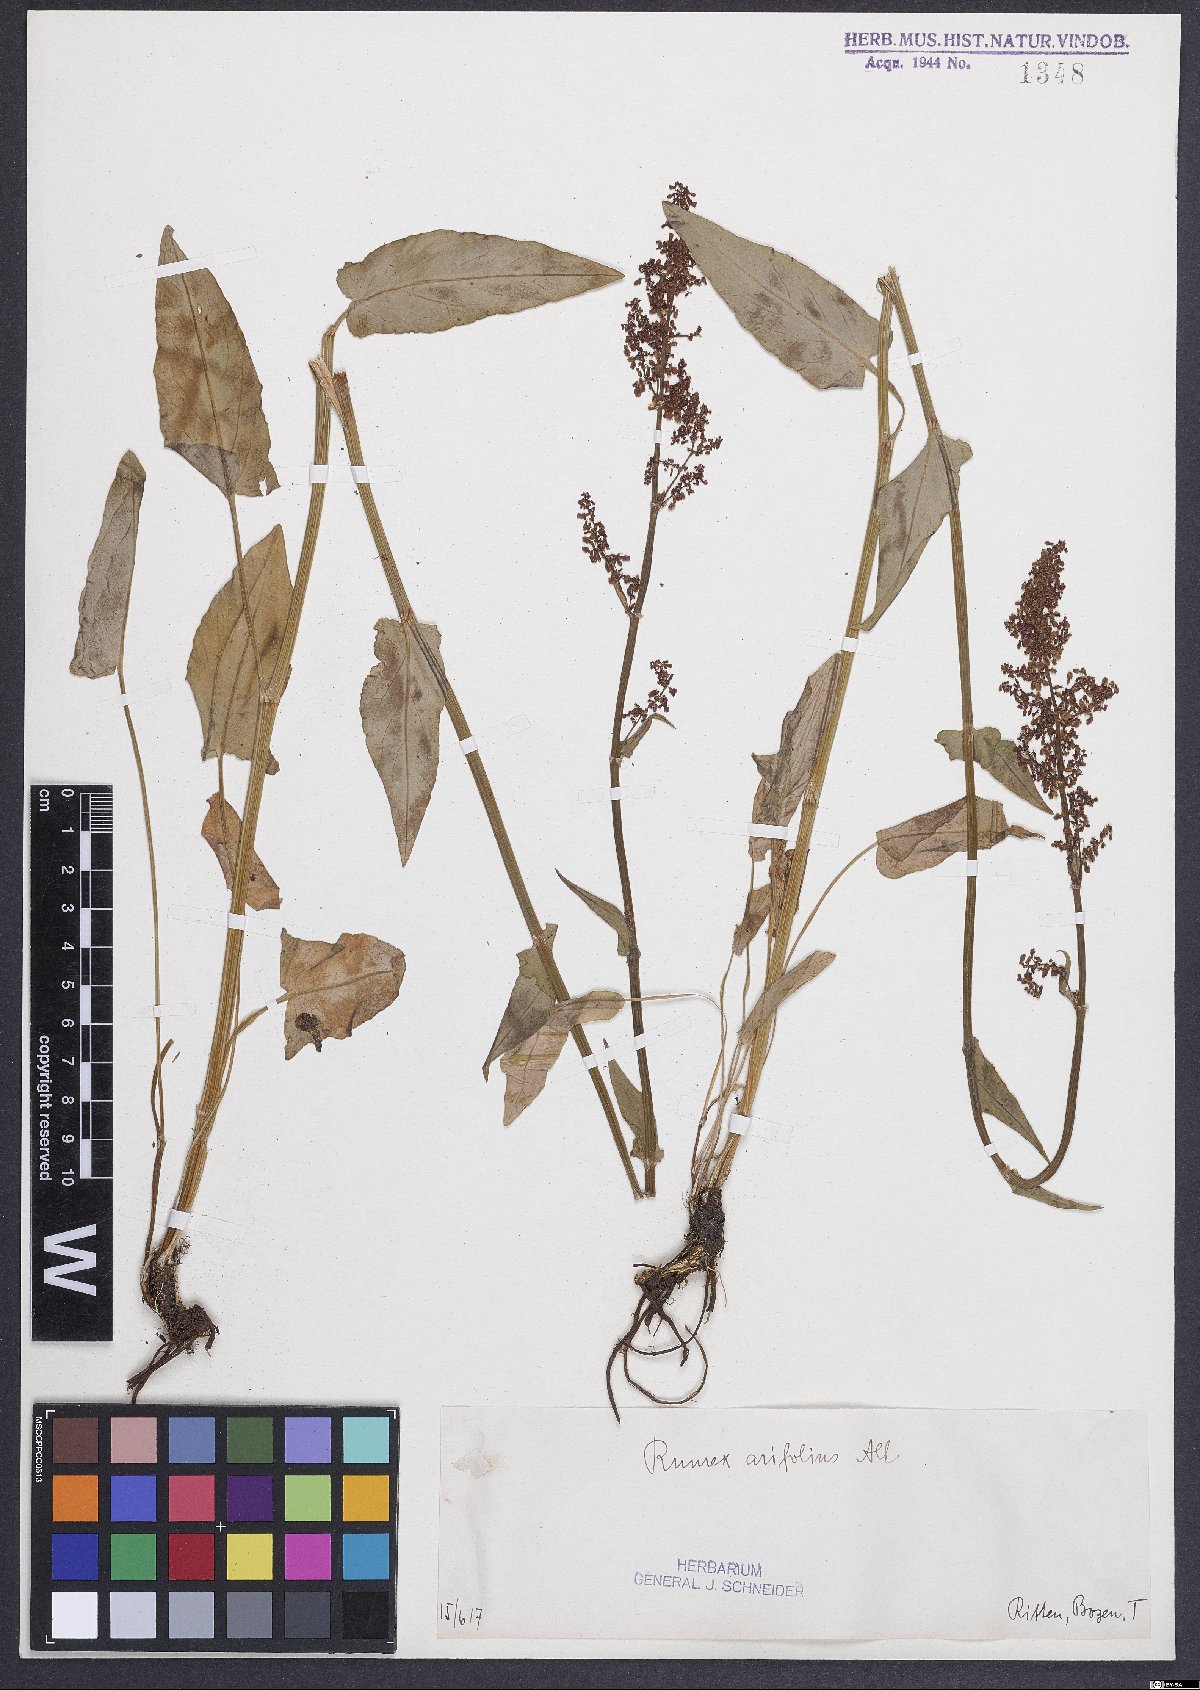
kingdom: Plantae
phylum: Tracheophyta
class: Magnoliopsida
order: Caryophyllales
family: Polygonaceae
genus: Rumex
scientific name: Rumex arifolius
